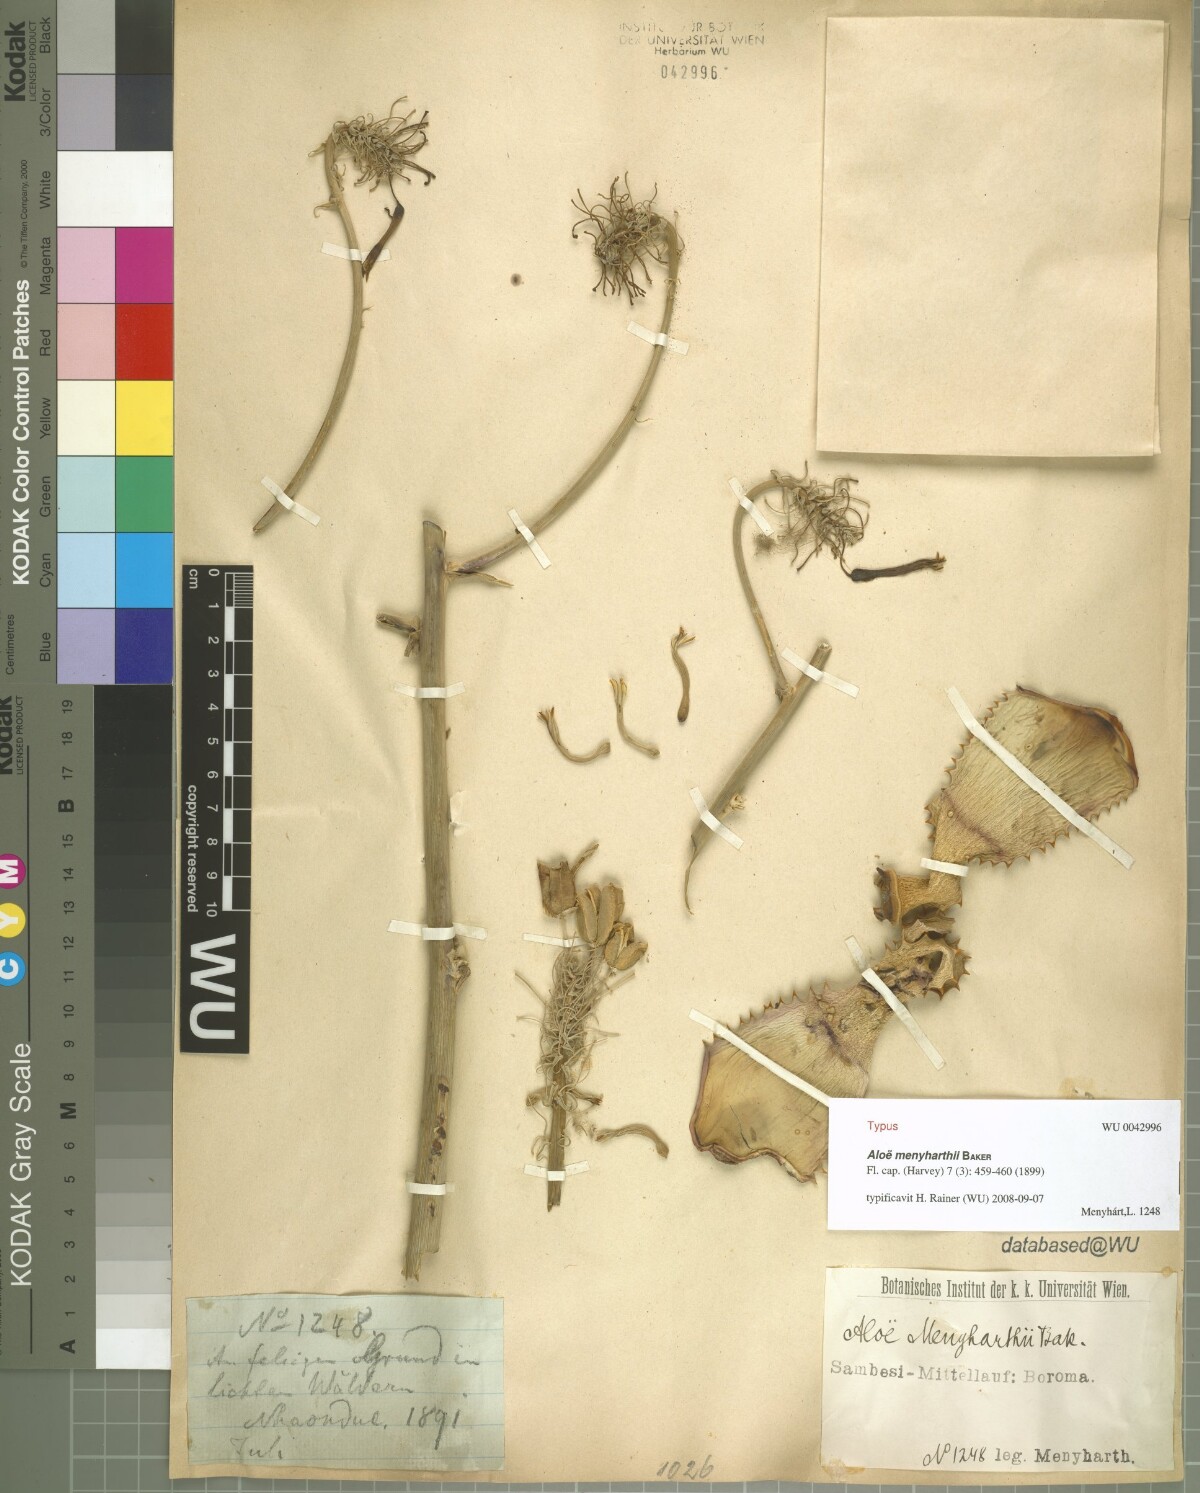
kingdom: Plantae
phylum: Tracheophyta
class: Liliopsida
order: Asparagales
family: Asphodelaceae
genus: Aloe
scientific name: Aloe menyharthii
